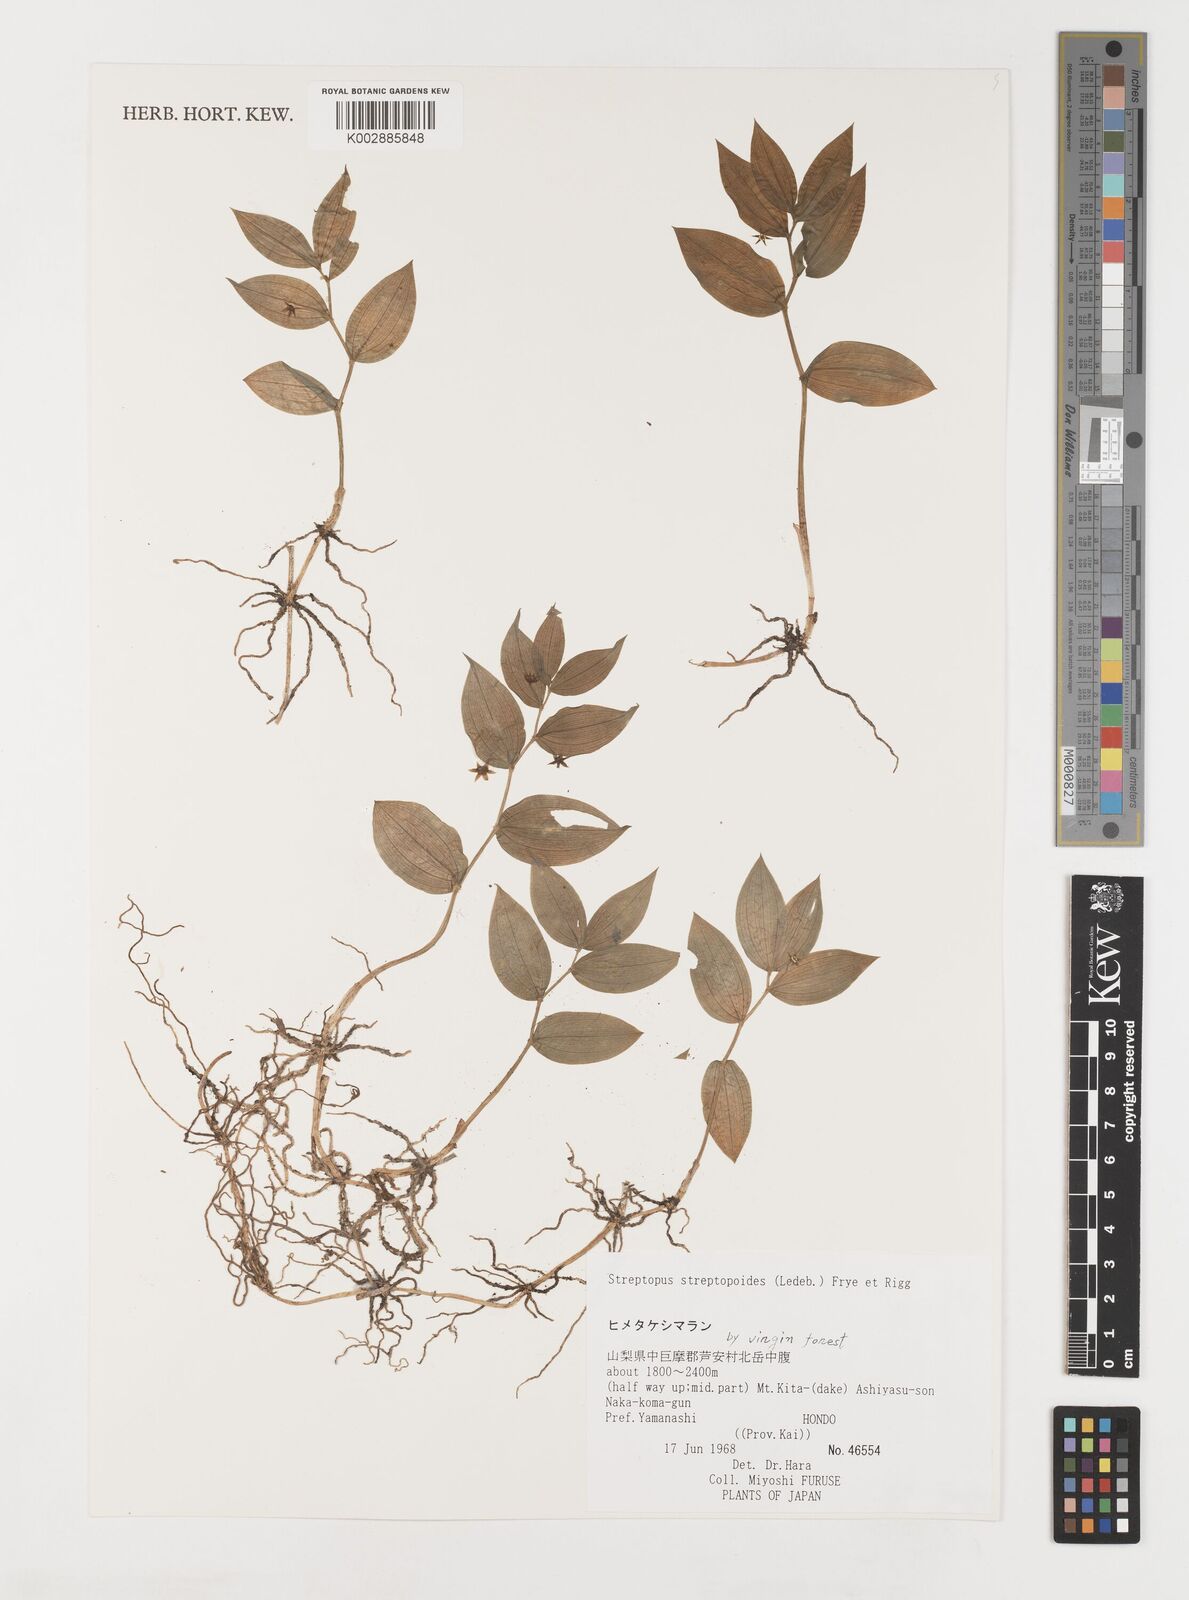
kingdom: Plantae
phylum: Tracheophyta
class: Liliopsida
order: Liliales
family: Liliaceae
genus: Streptopus
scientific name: Streptopus streptopoides
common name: Small twisted-stalk
